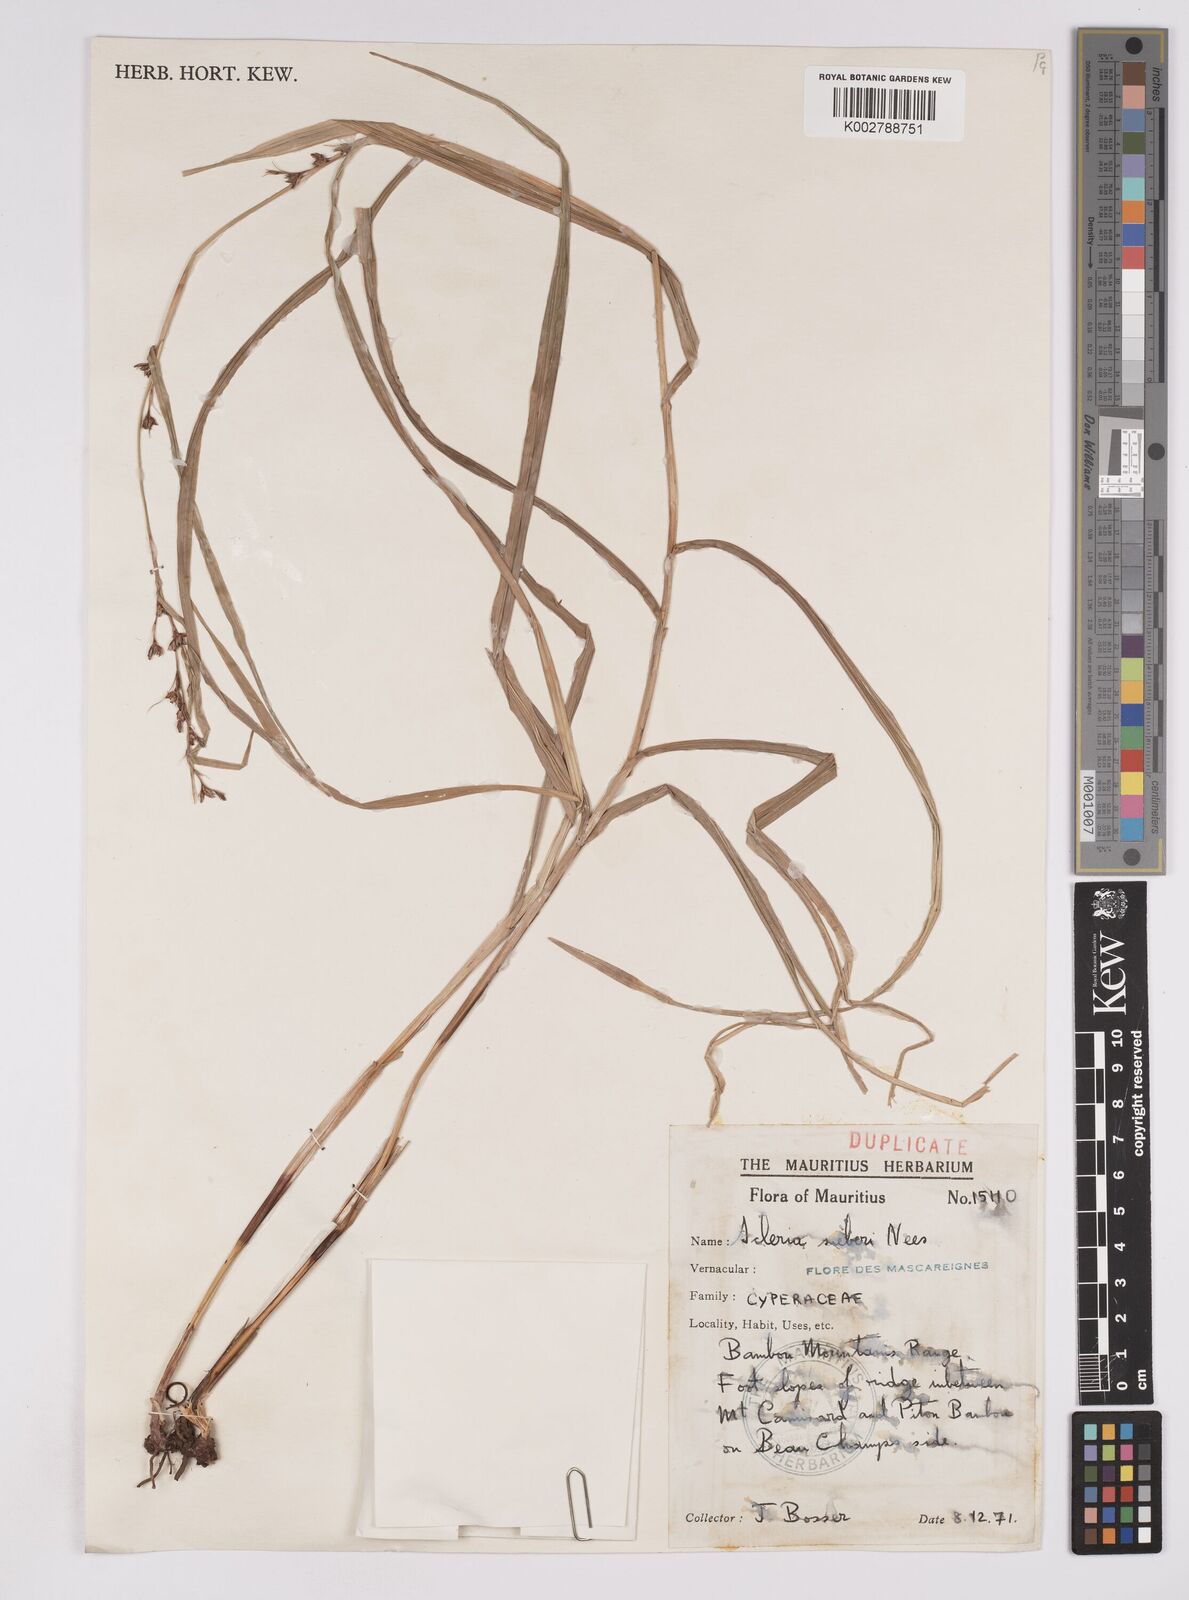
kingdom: Plantae
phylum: Tracheophyta
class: Liliopsida
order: Poales
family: Cyperaceae
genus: Scleria
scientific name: Scleria gaertneri
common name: Cortadera blanca
